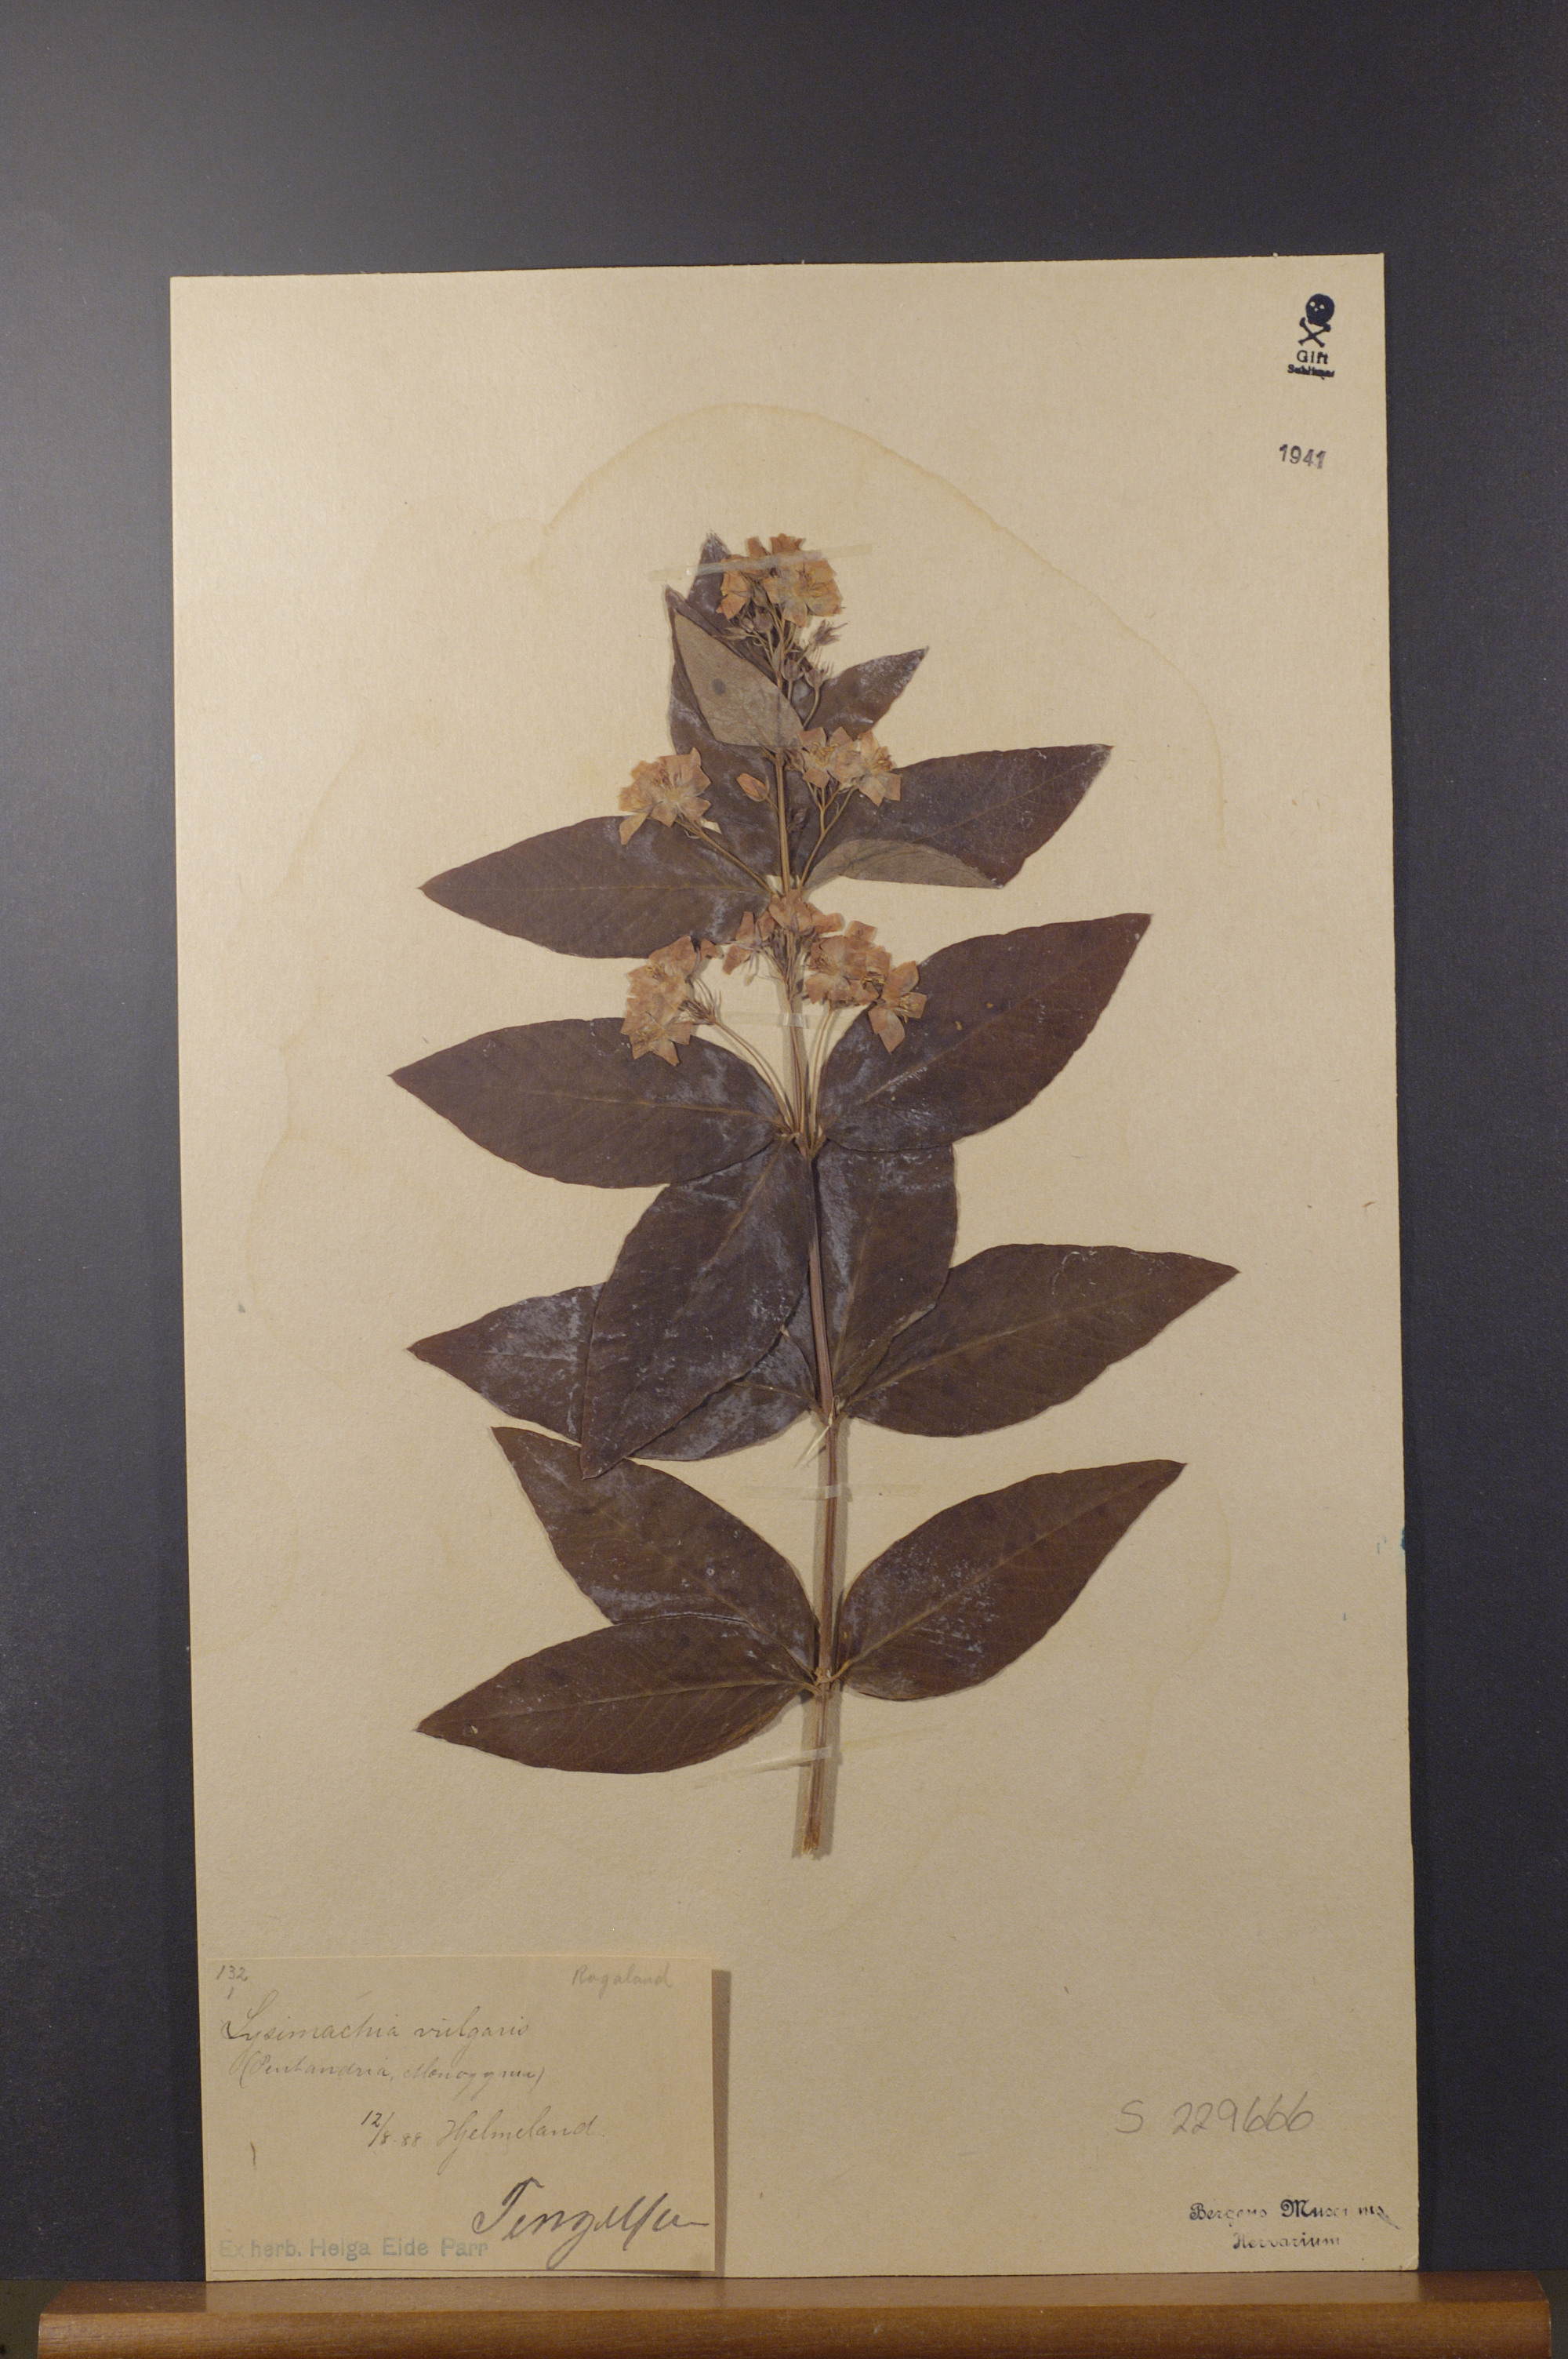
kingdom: Plantae
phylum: Tracheophyta
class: Magnoliopsida
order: Ericales
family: Primulaceae
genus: Lysimachia
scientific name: Lysimachia vulgaris
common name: Yellow loosestrife
